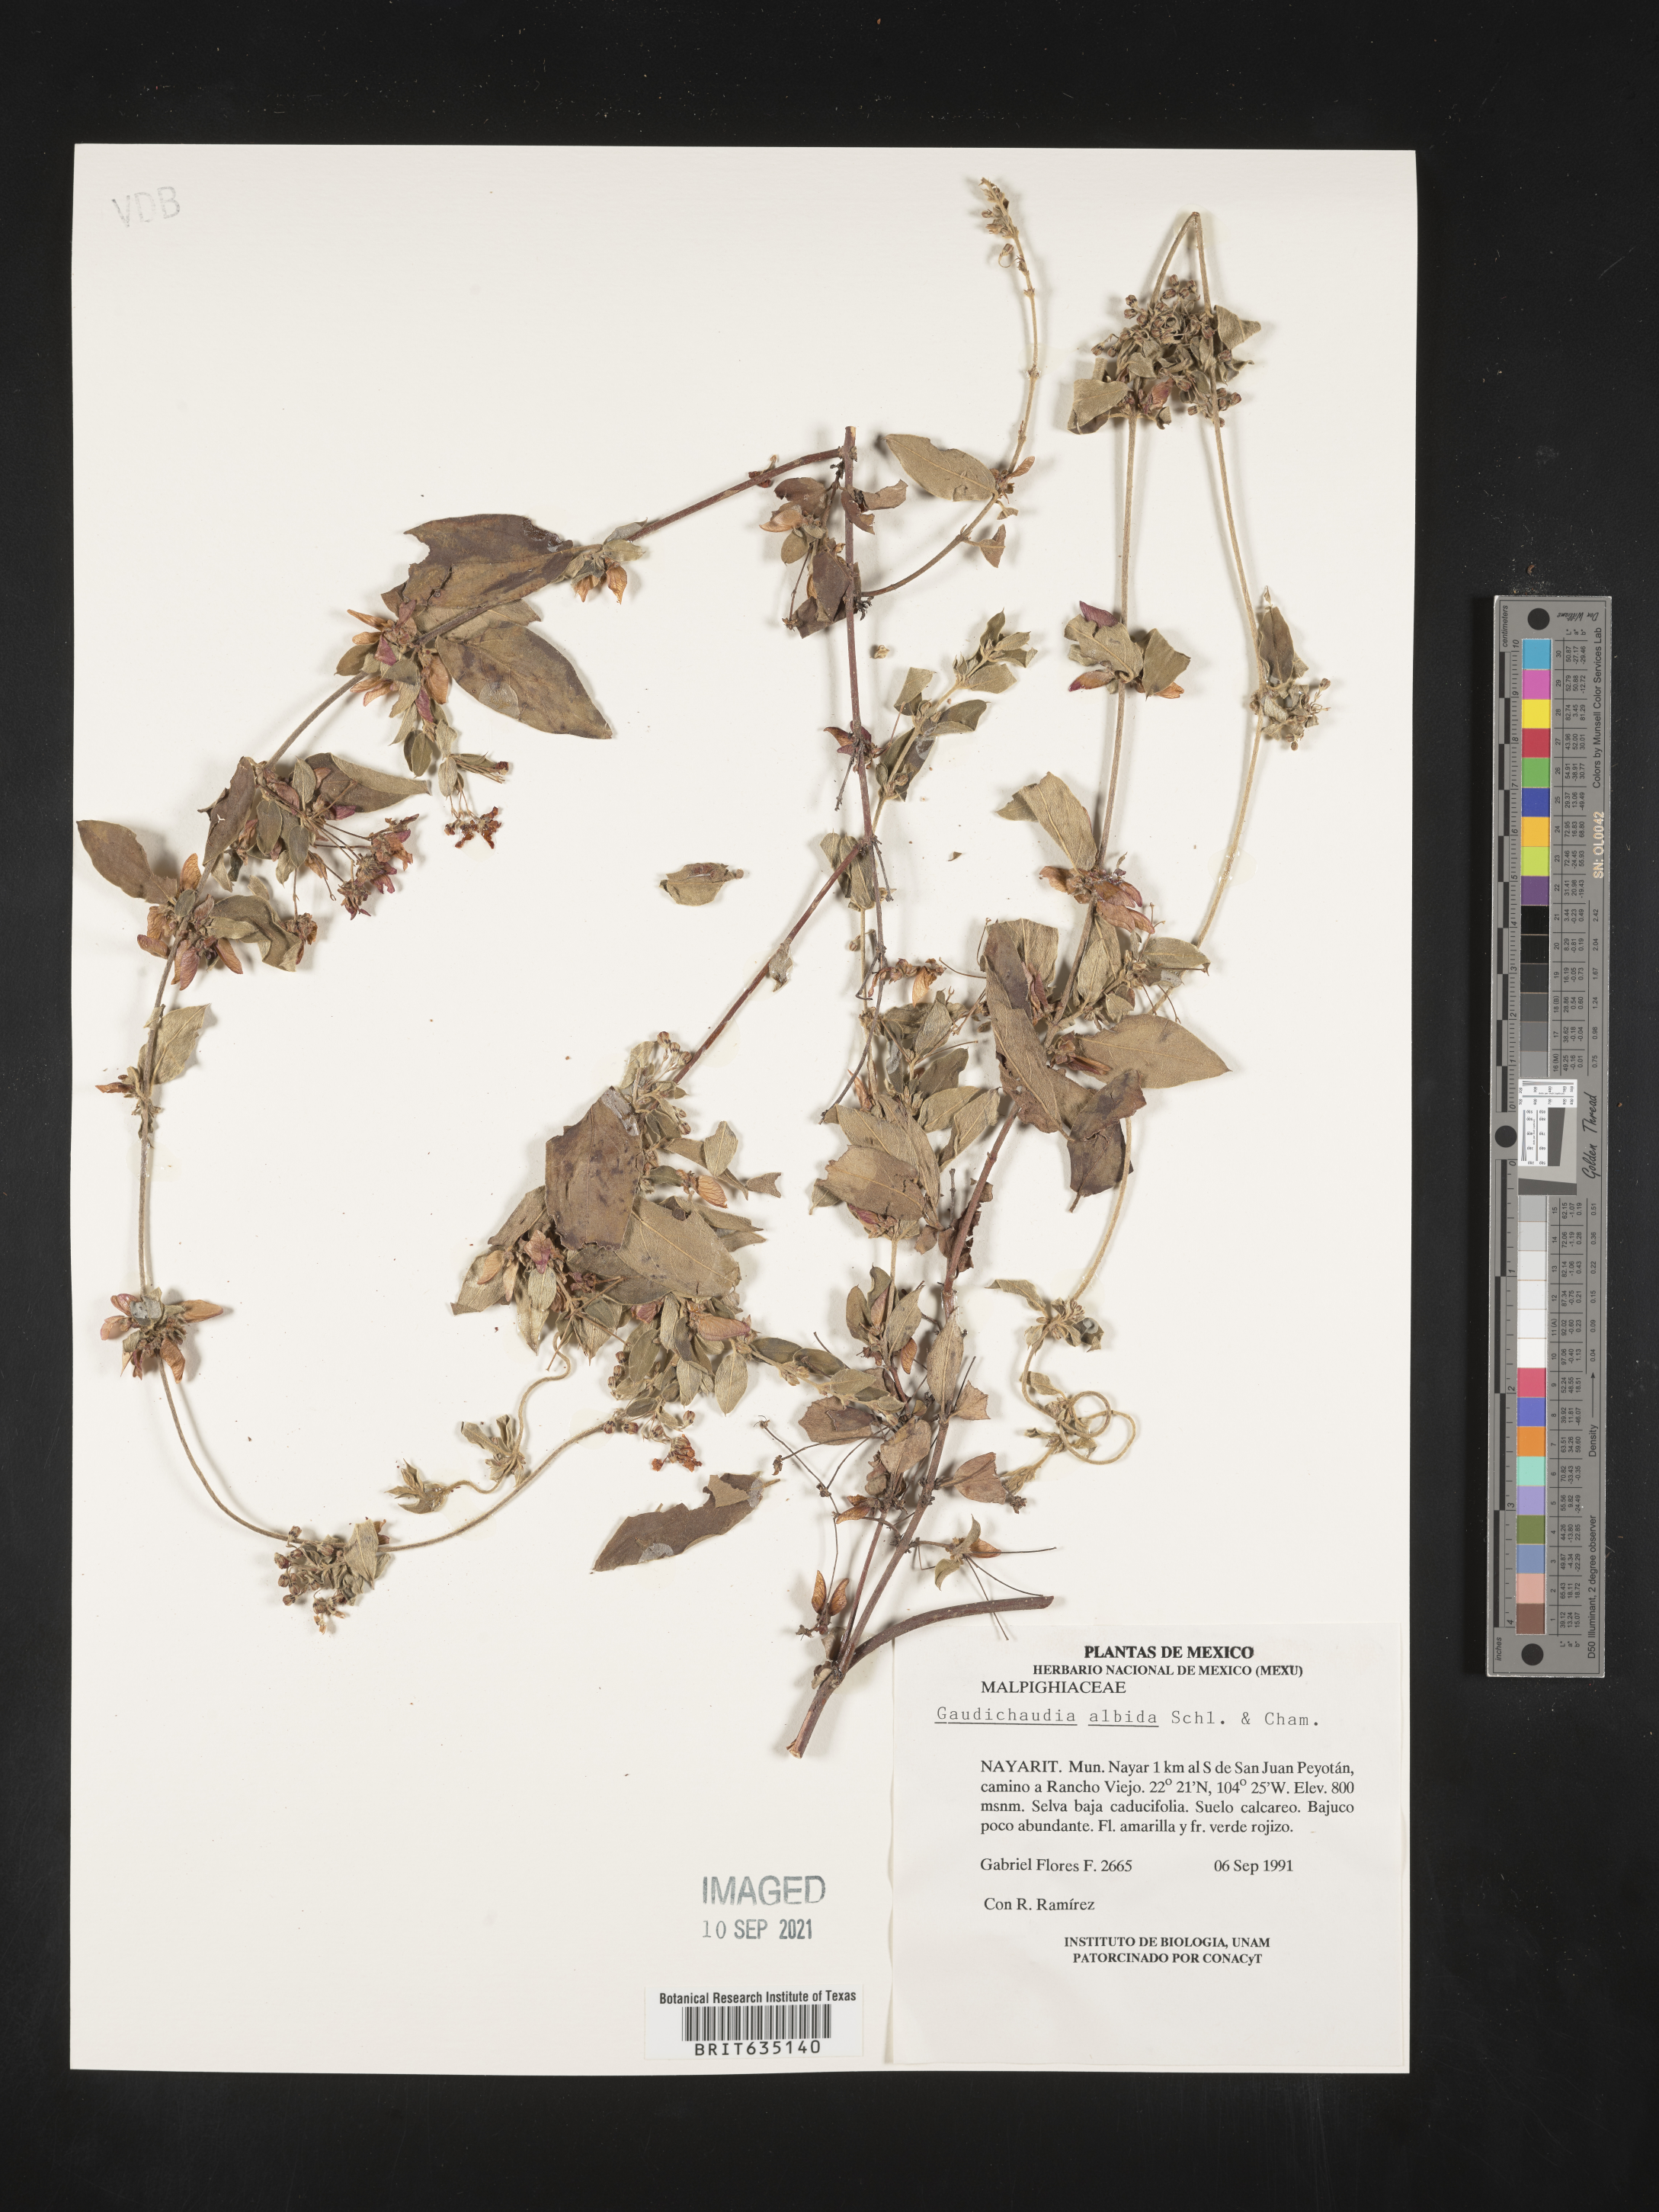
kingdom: Plantae
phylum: Tracheophyta
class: Magnoliopsida
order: Malpighiales
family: Malpighiaceae
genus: Gaudichaudia
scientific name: Gaudichaudia
